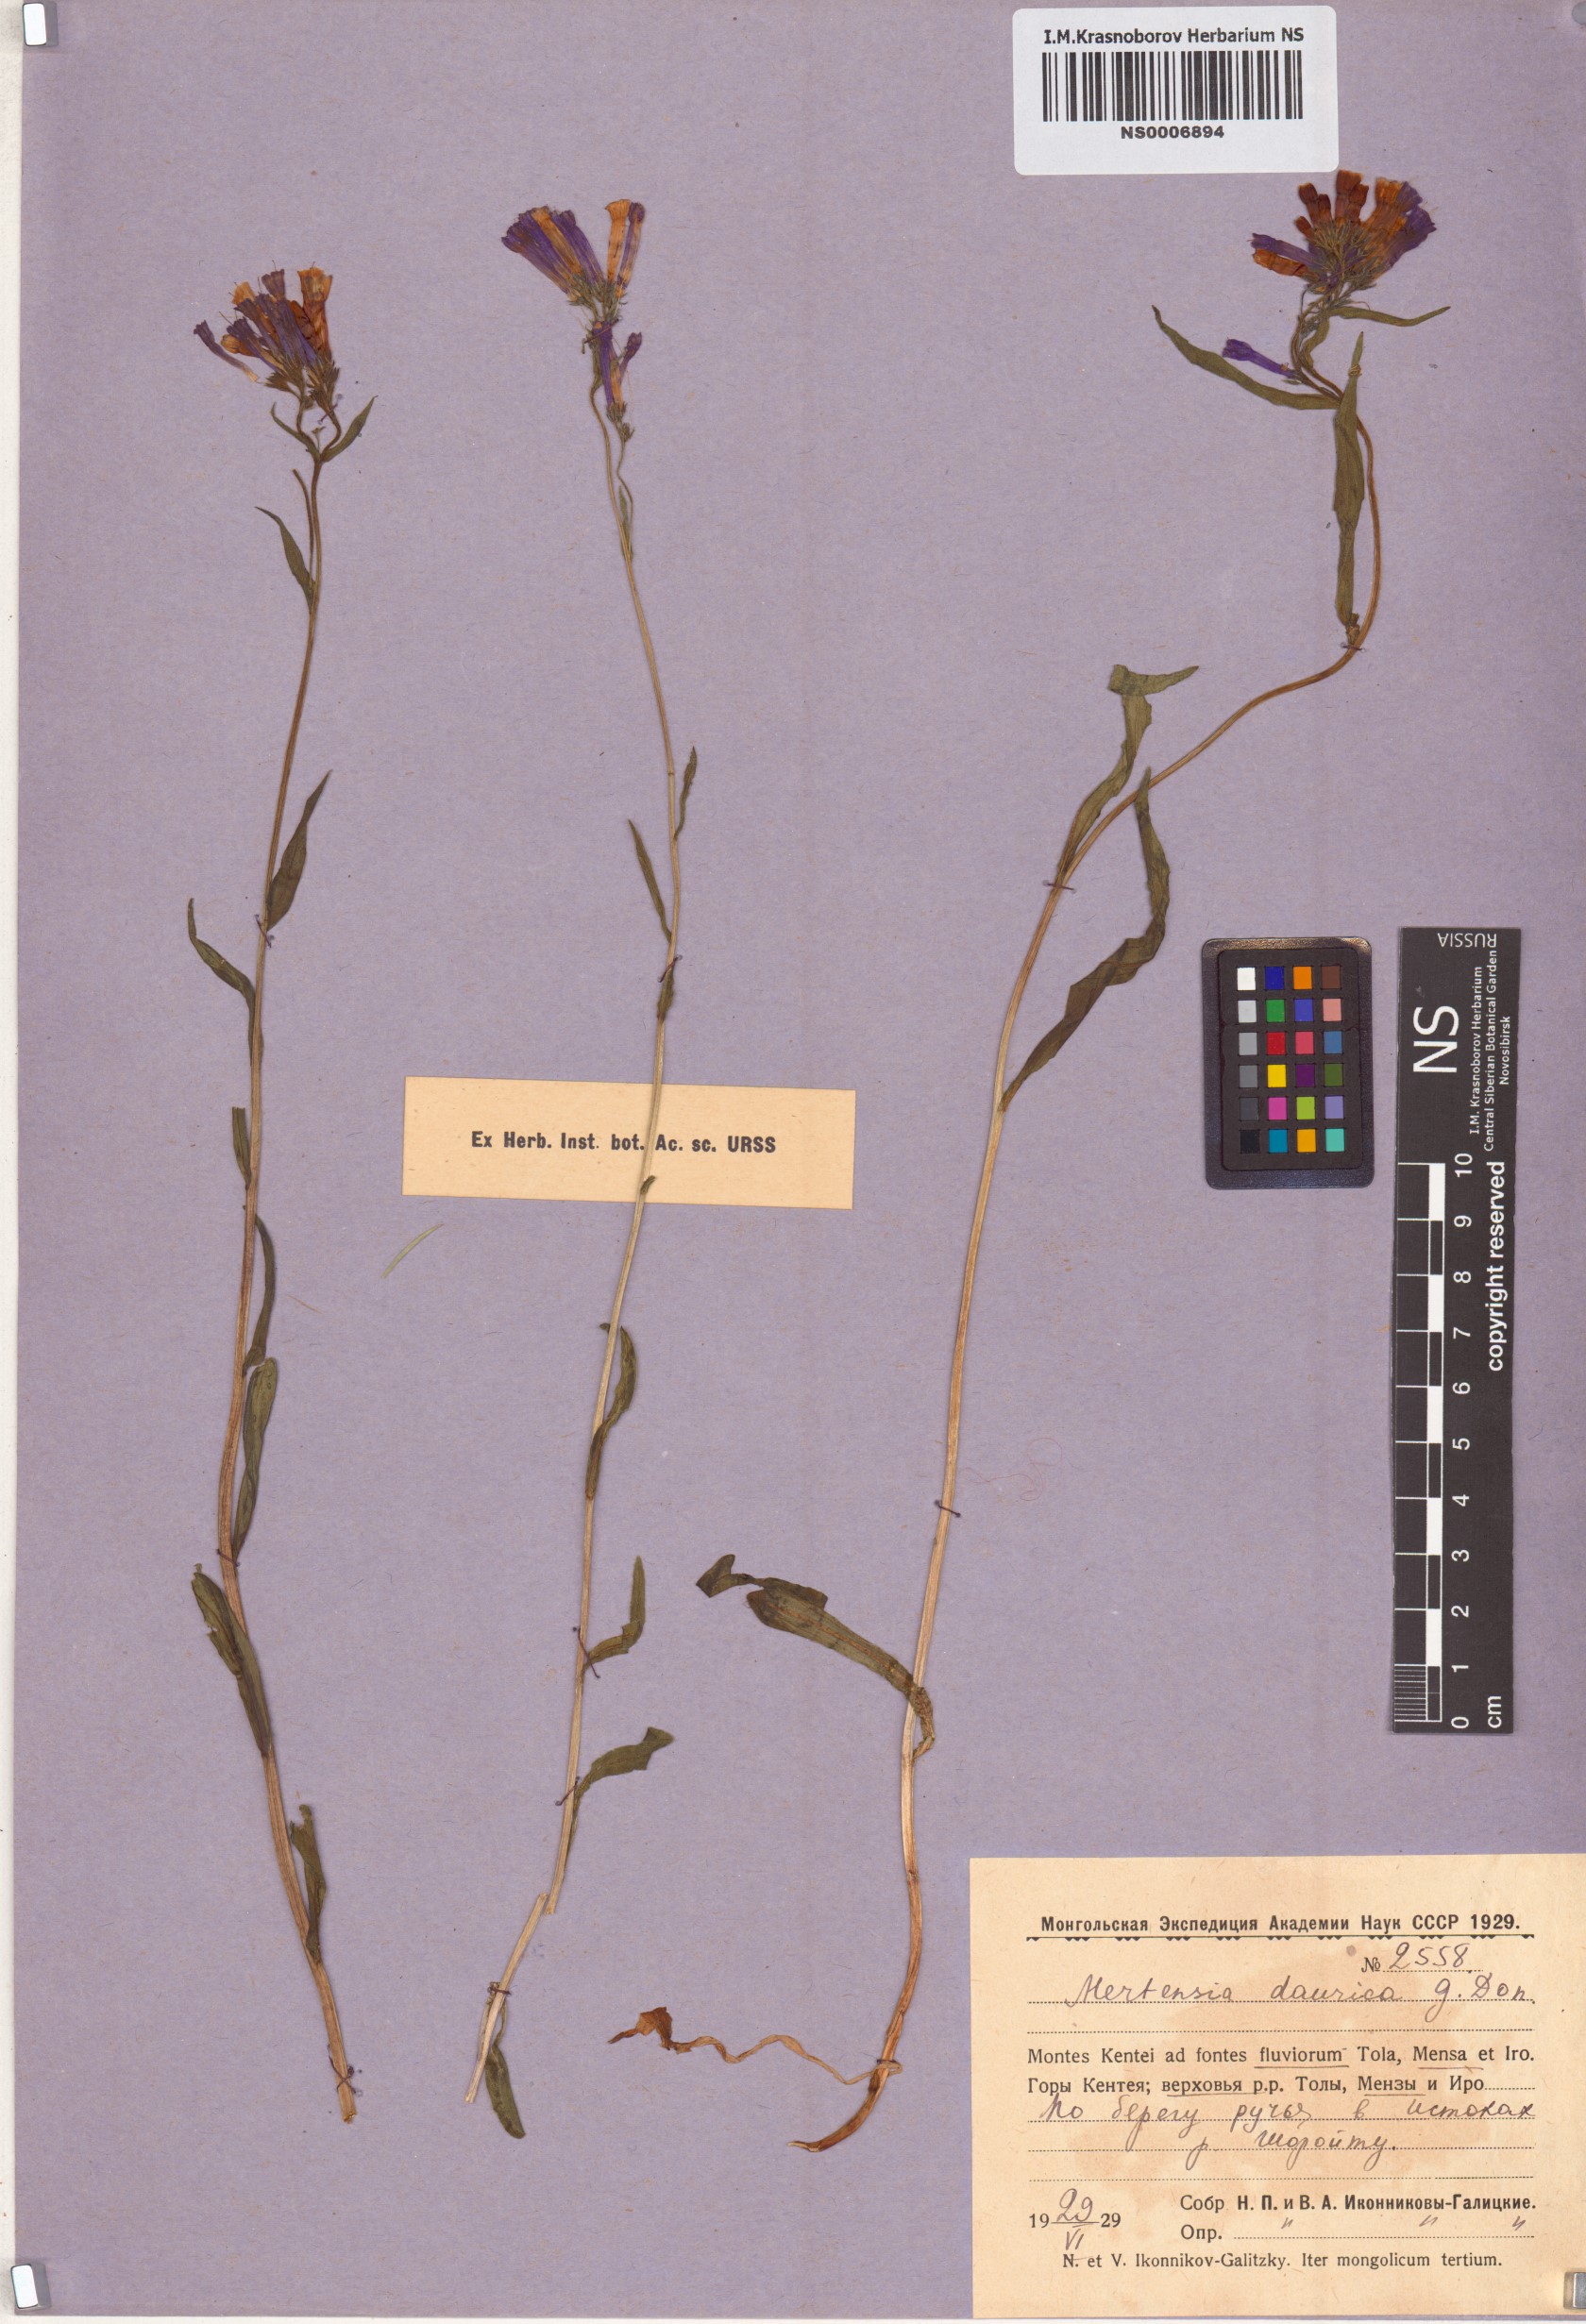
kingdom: Plantae
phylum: Tracheophyta
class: Magnoliopsida
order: Boraginales
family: Boraginaceae
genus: Mertensia
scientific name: Mertensia davurica
